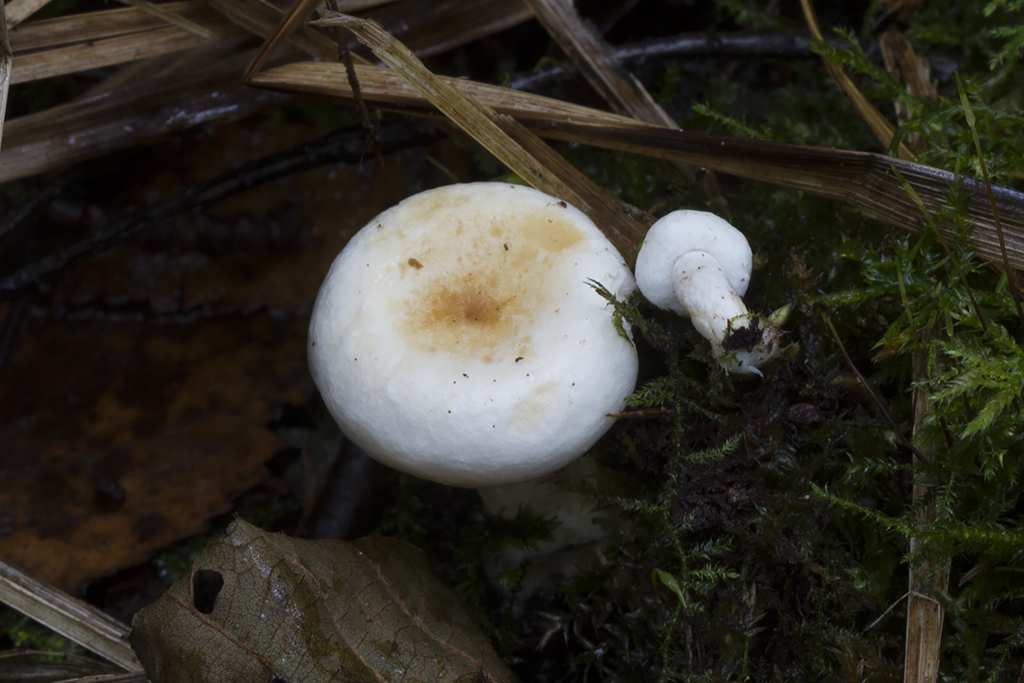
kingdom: Fungi
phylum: Basidiomycota
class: Agaricomycetes
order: Russulales
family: Russulaceae
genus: Lactarius
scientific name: Lactarius pubescens
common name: dunet mælkehat
